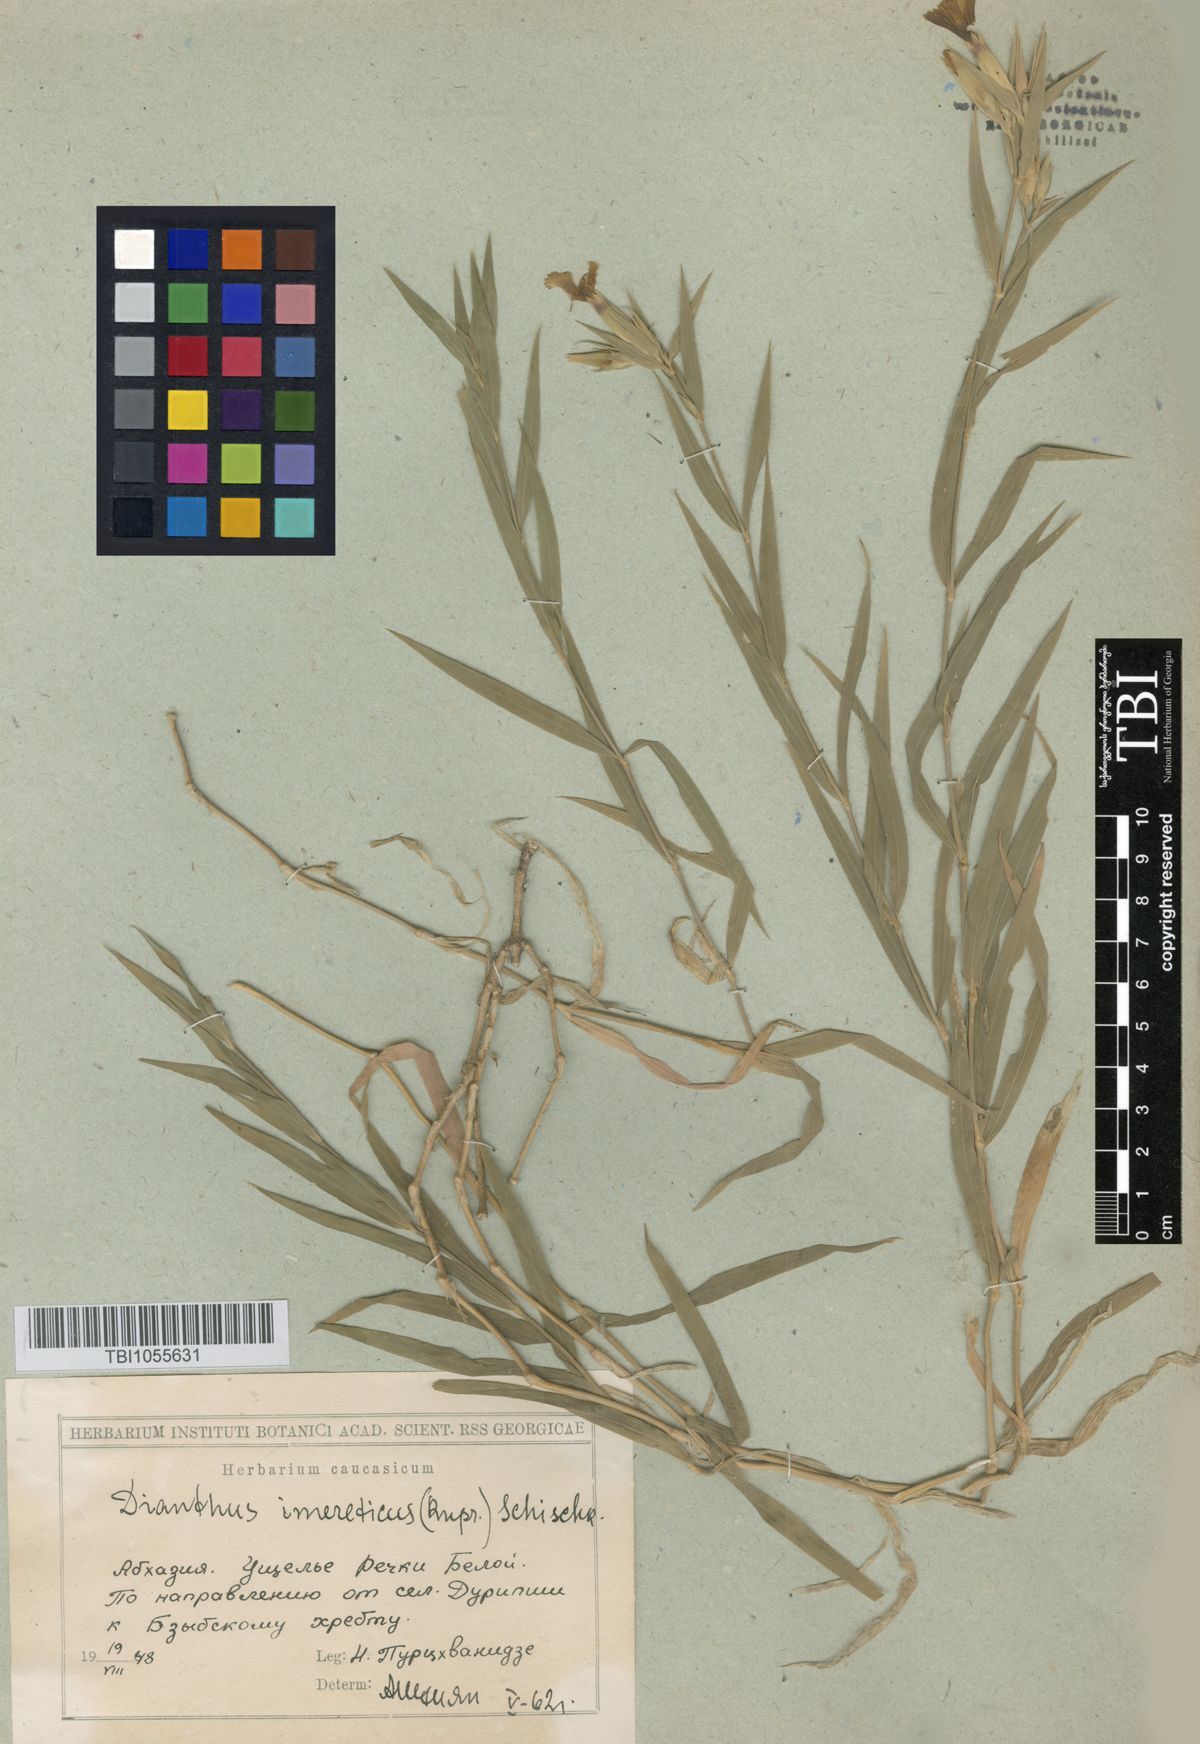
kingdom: Plantae
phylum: Tracheophyta
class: Magnoliopsida
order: Caryophyllales
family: Caryophyllaceae
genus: Dianthus
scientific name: Dianthus imereticus
